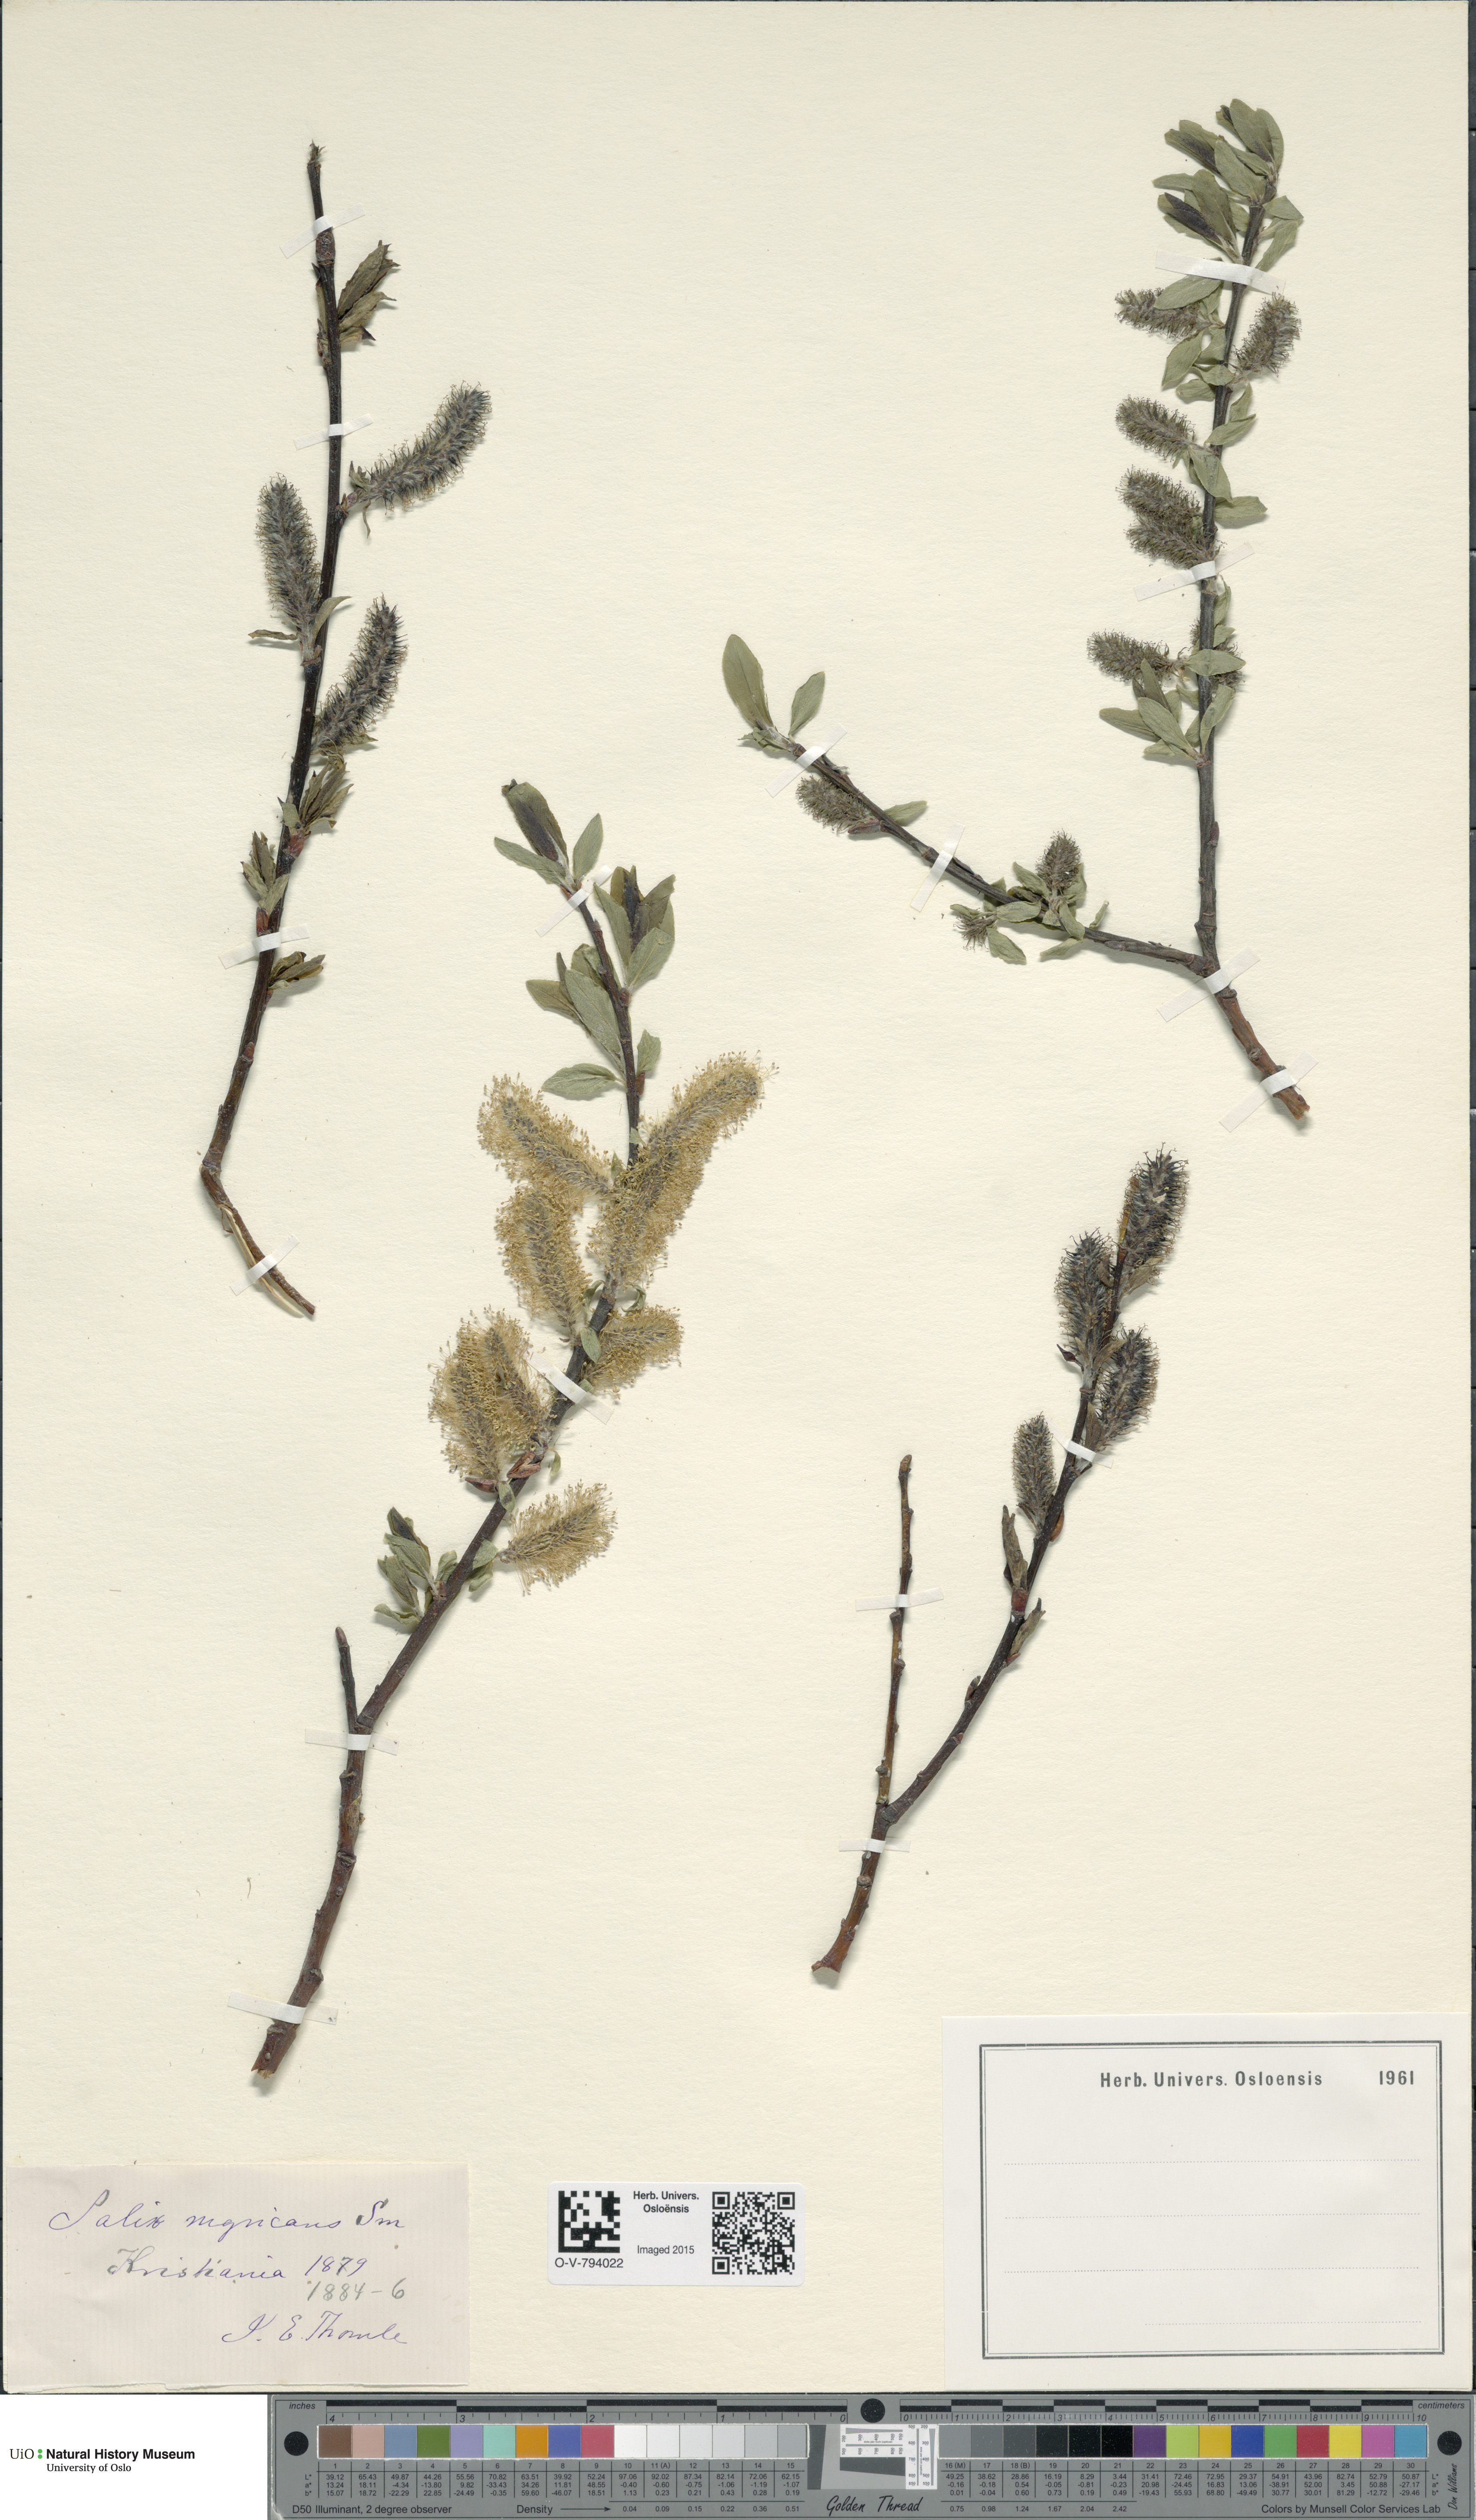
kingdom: Plantae
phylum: Tracheophyta
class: Magnoliopsida
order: Malpighiales
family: Salicaceae
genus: Salix
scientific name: Salix myrsinifolia
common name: Dark-leaved willow
